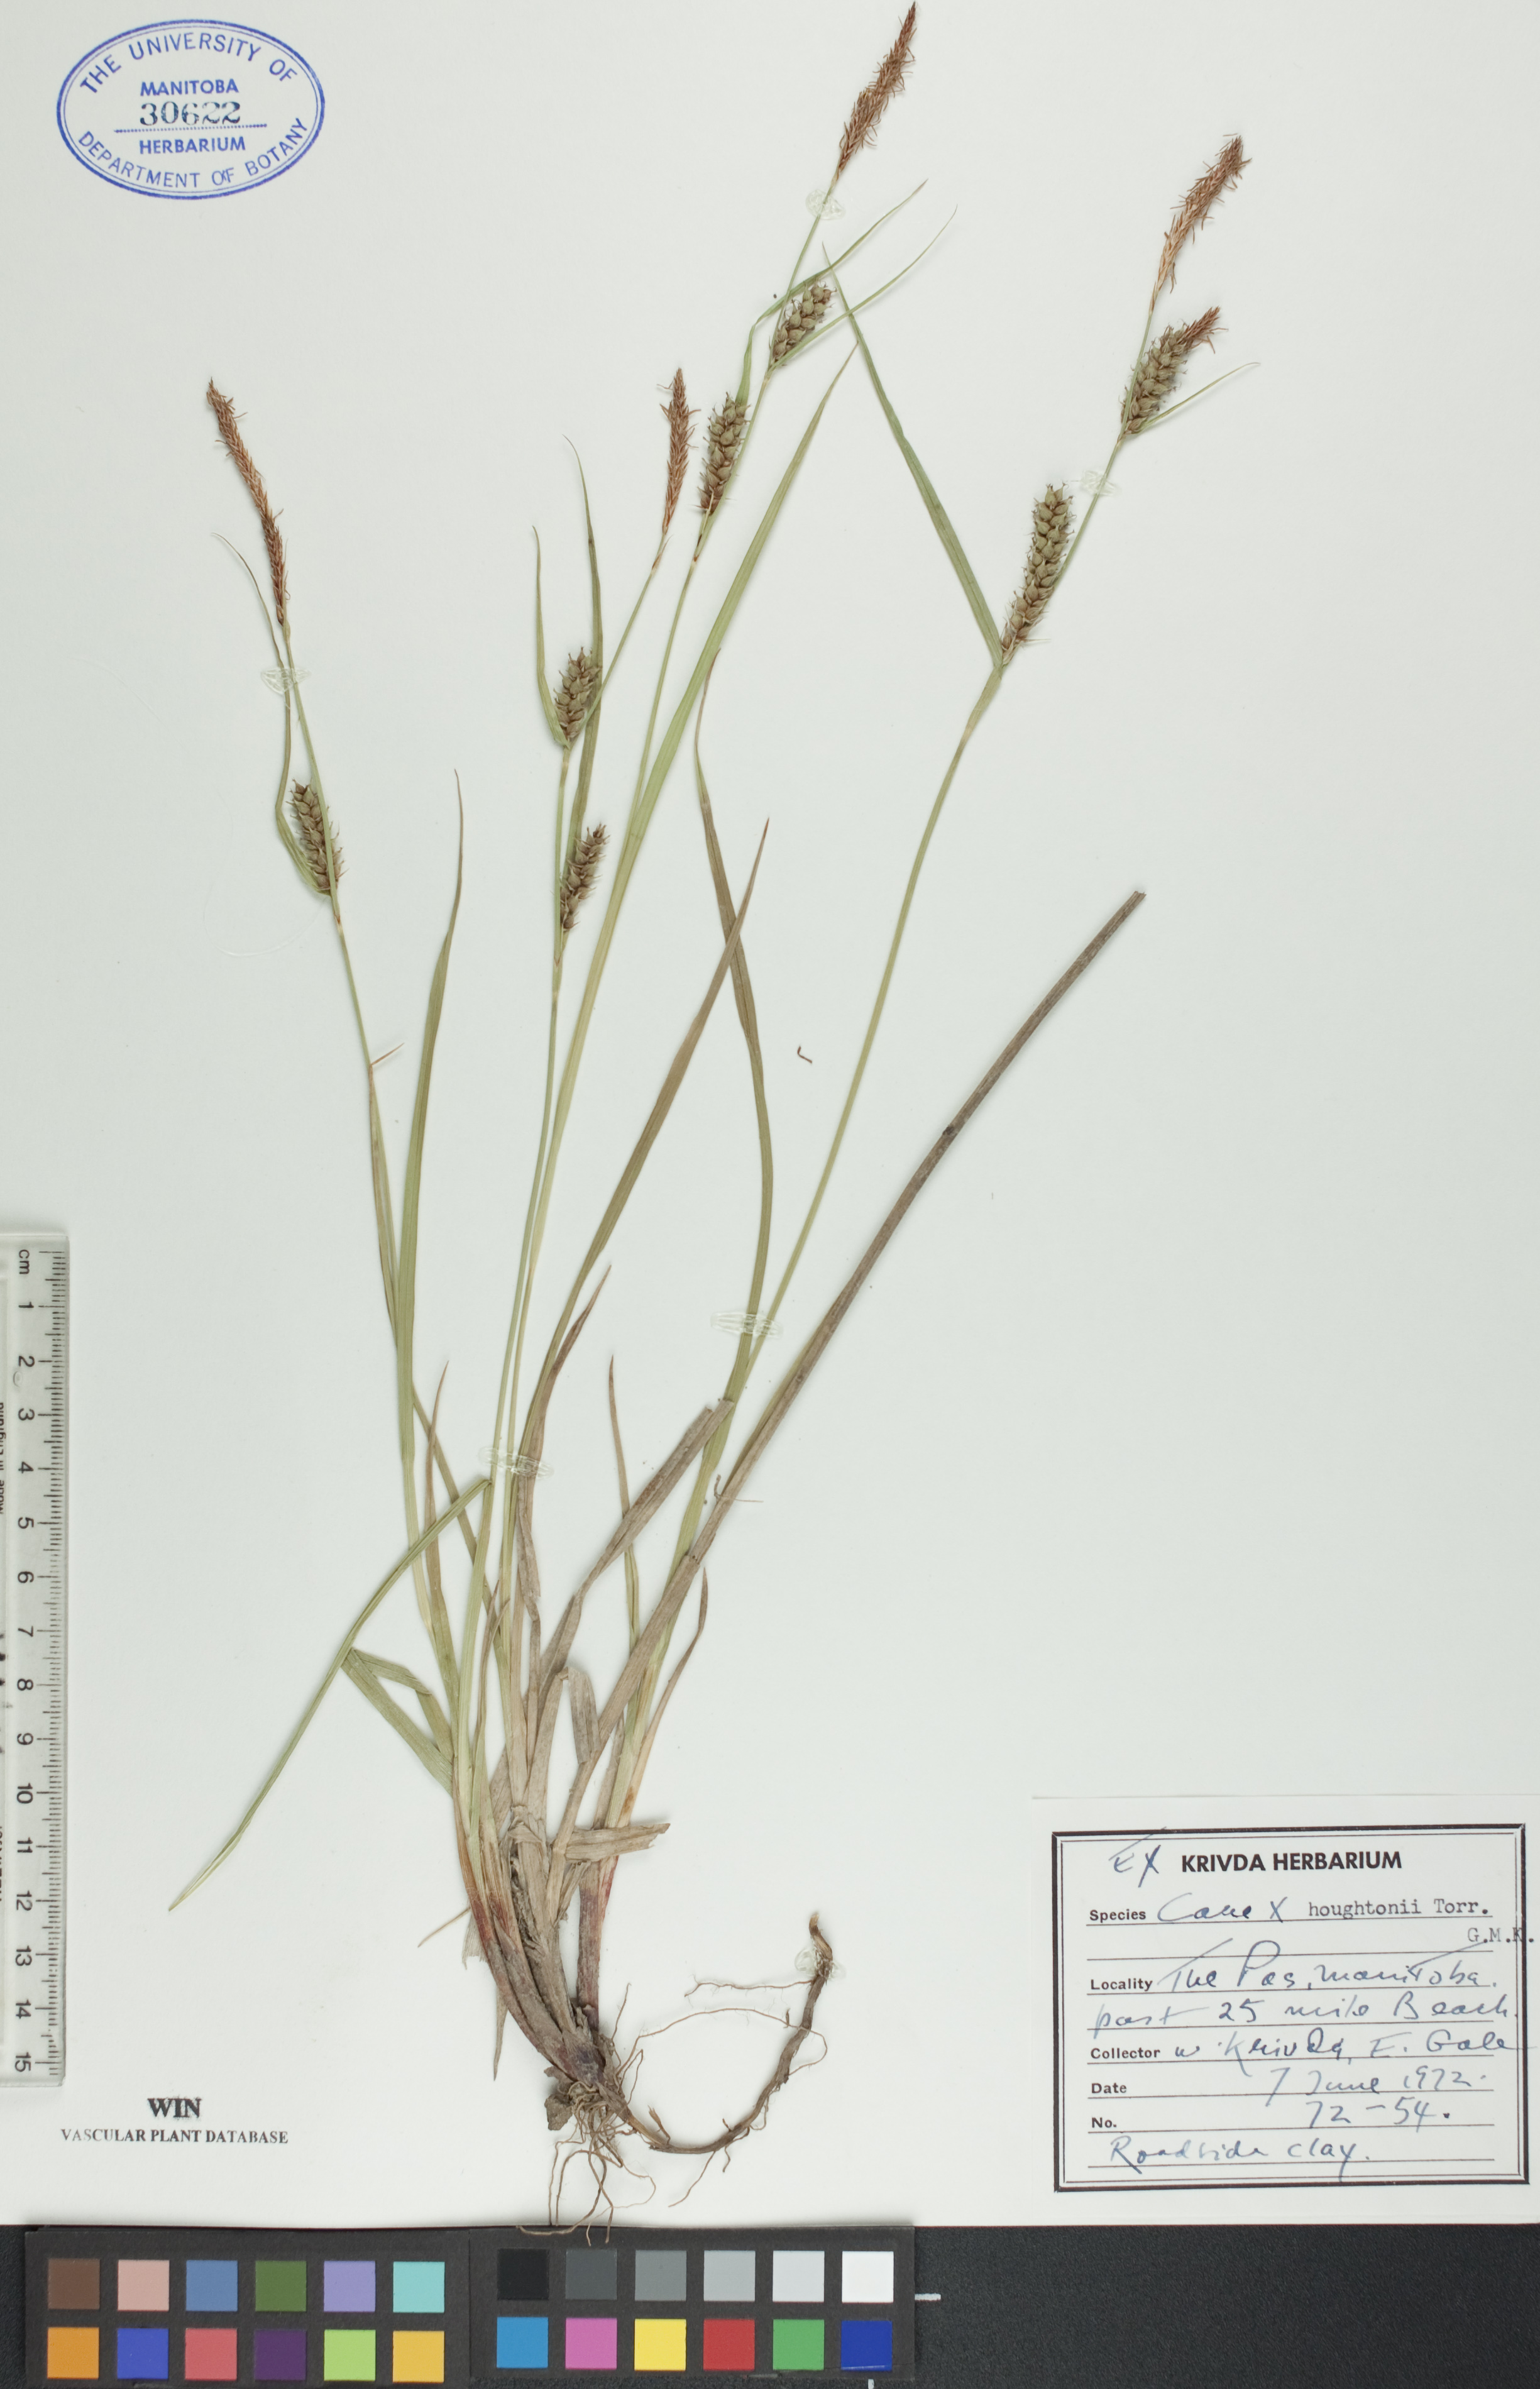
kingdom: Plantae
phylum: Tracheophyta
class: Liliopsida
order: Poales
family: Cyperaceae
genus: Carex
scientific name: Carex houghtoniana
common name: Houghton's sedge
